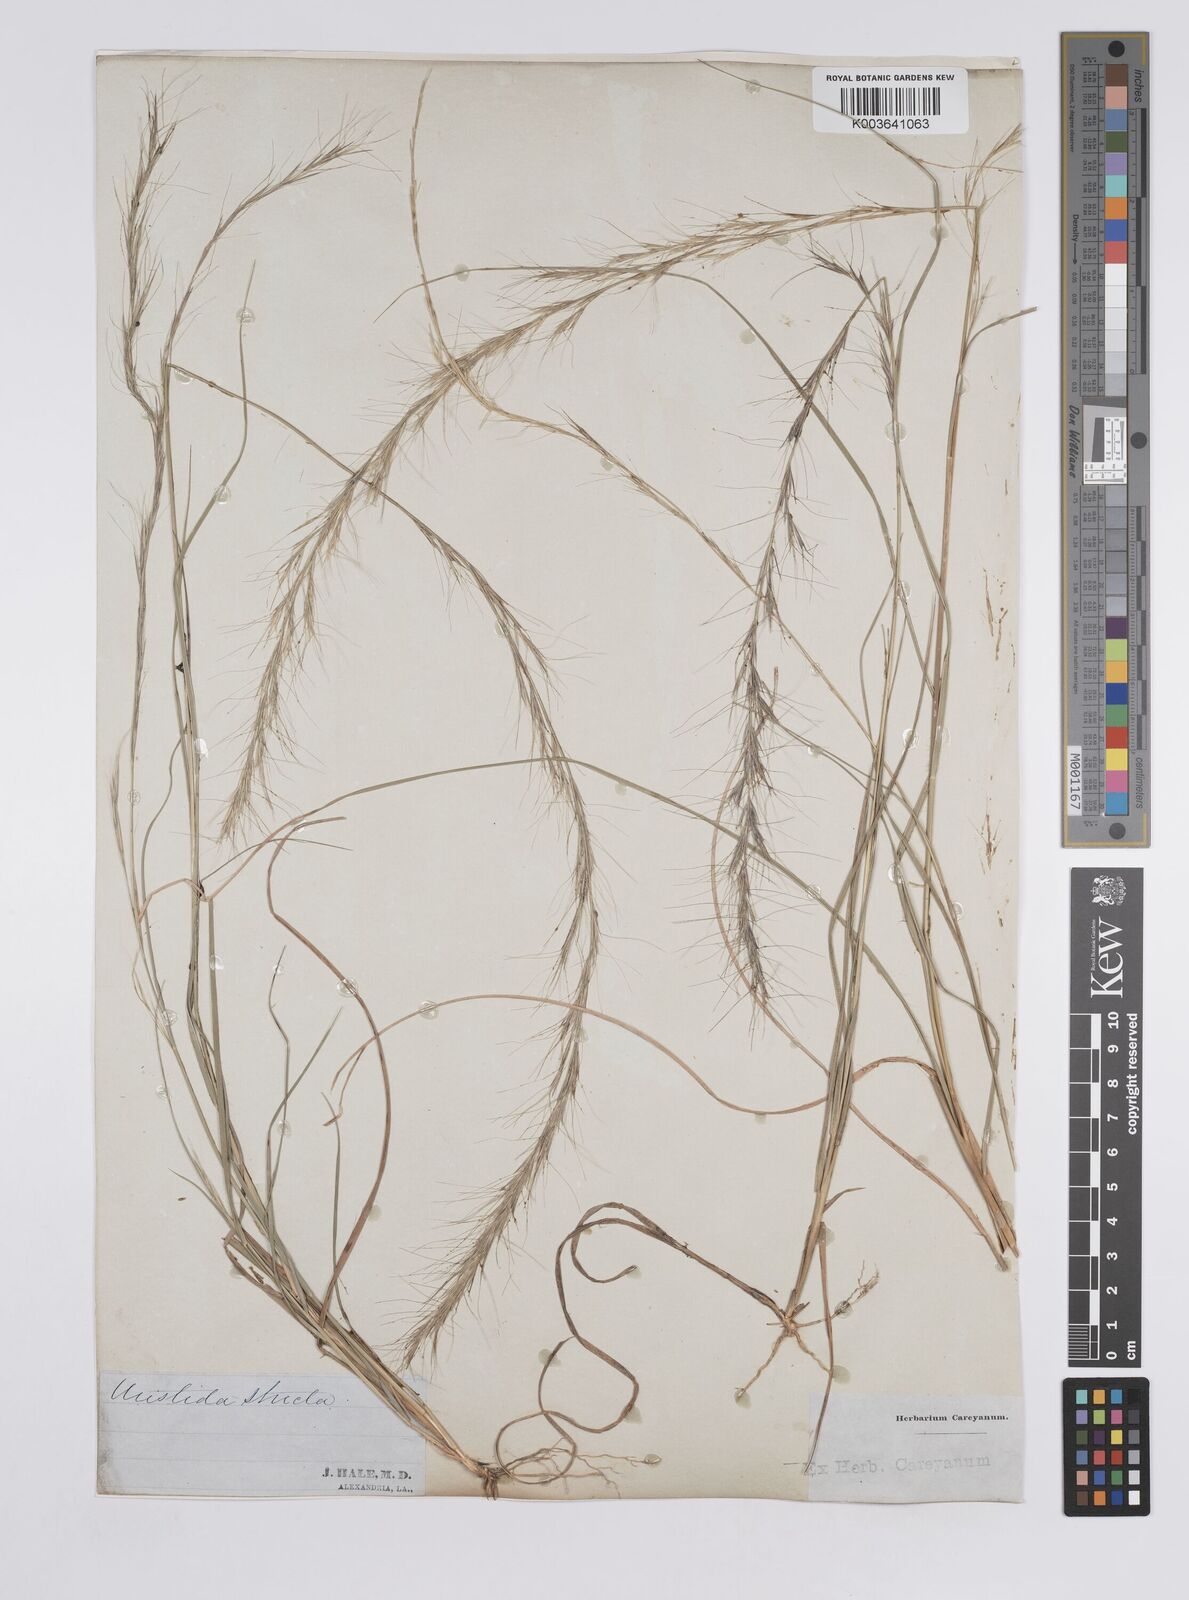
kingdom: Plantae
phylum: Tracheophyta
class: Liliopsida
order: Poales
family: Poaceae
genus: Aristida
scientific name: Aristida stricta
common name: Pineland three-awn
